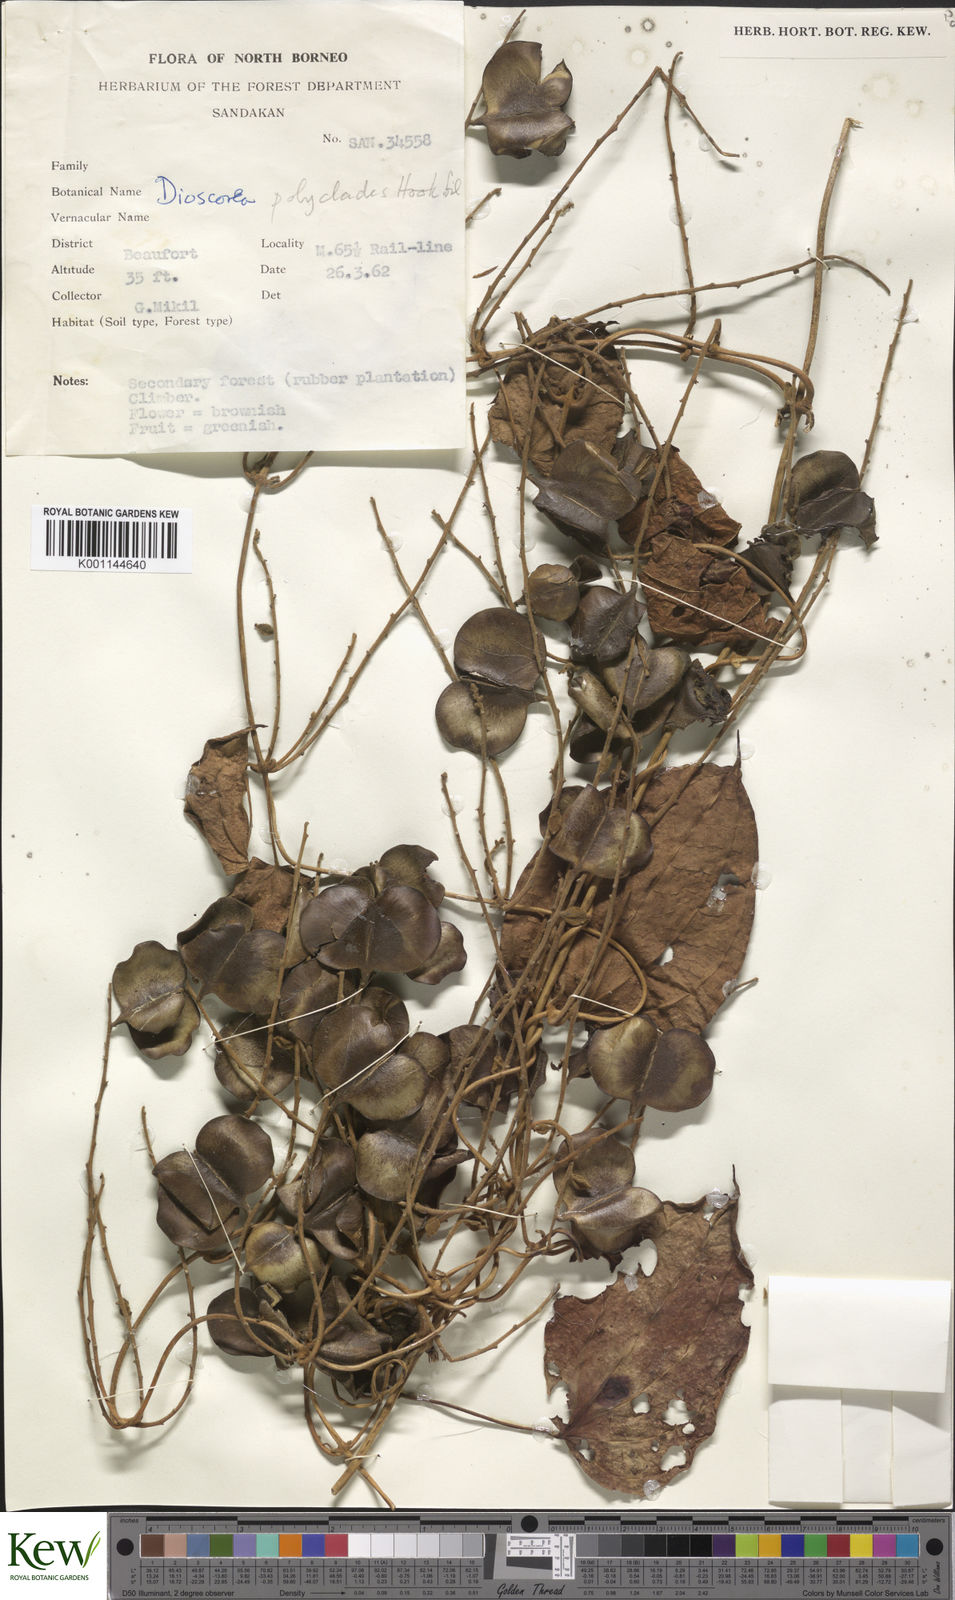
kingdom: Plantae
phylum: Tracheophyta
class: Liliopsida
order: Dioscoreales
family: Dioscoreaceae
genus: Dioscorea
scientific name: Dioscorea polyclados
